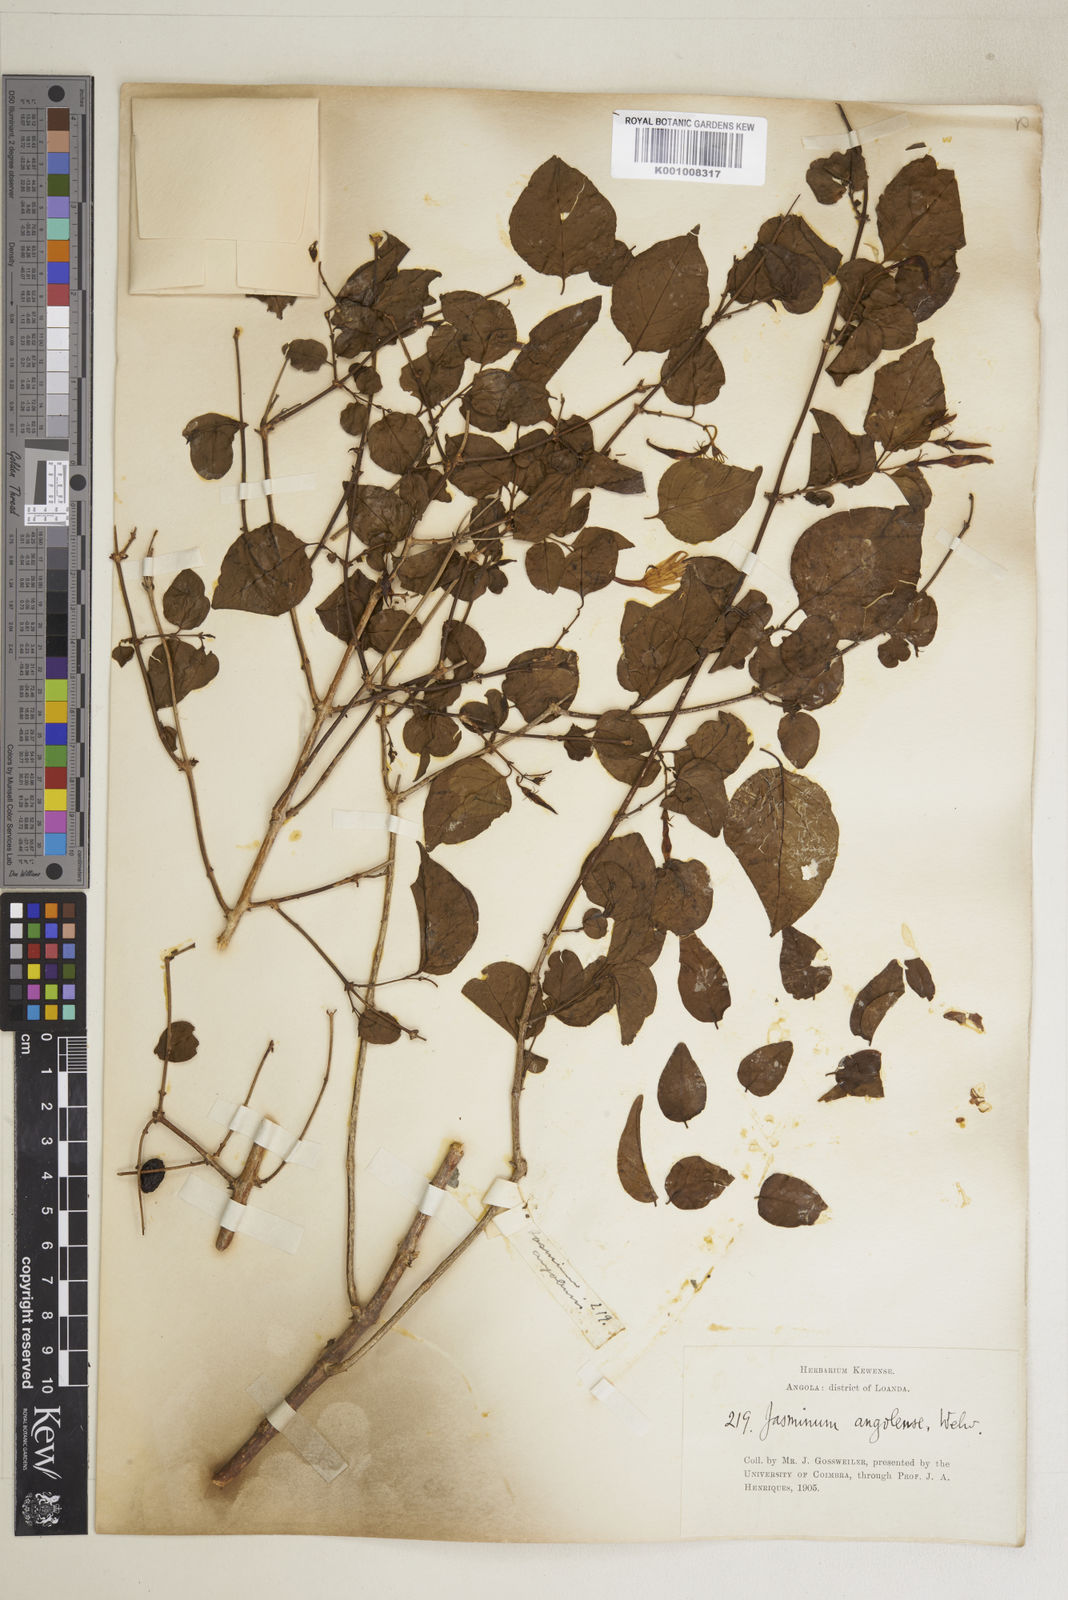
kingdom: Plantae
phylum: Tracheophyta
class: Magnoliopsida
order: Lamiales
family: Oleaceae
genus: Jasminum
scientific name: Jasminum angolense
